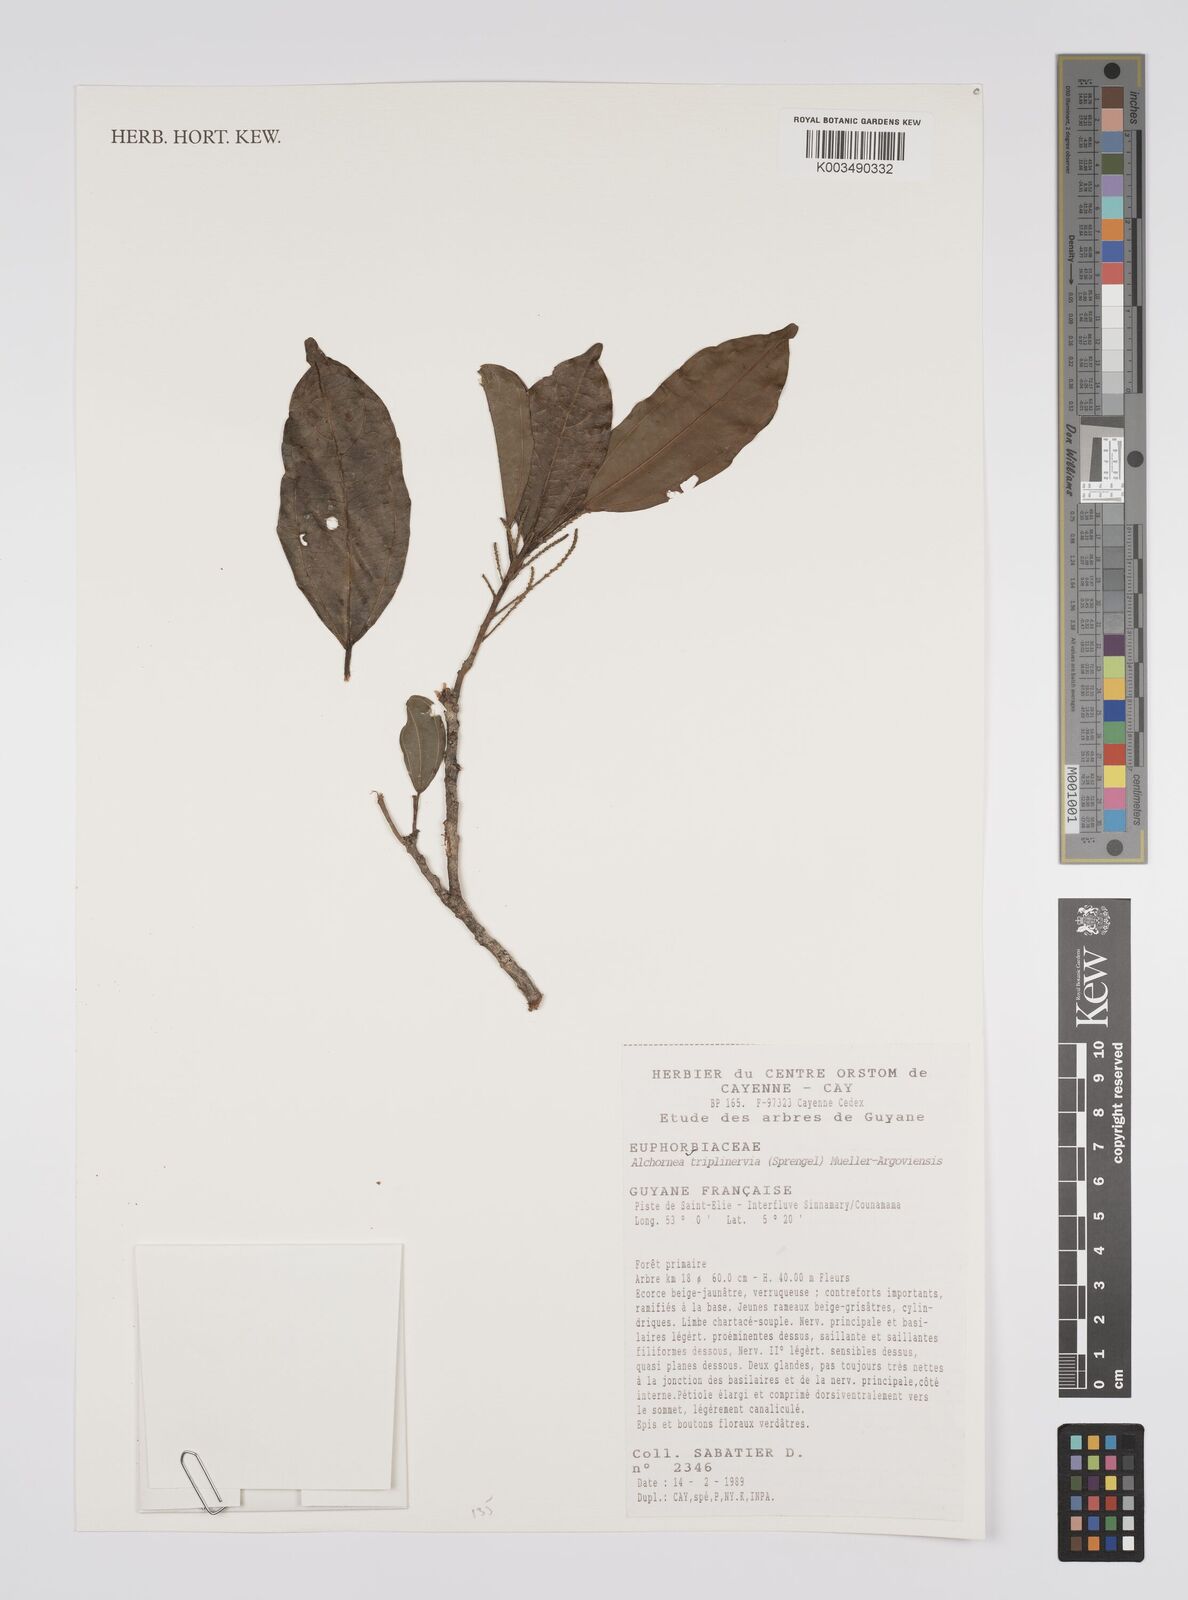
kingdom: Plantae
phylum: Tracheophyta
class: Magnoliopsida
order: Malpighiales
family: Euphorbiaceae
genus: Alchornea
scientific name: Alchornea triplinervia
